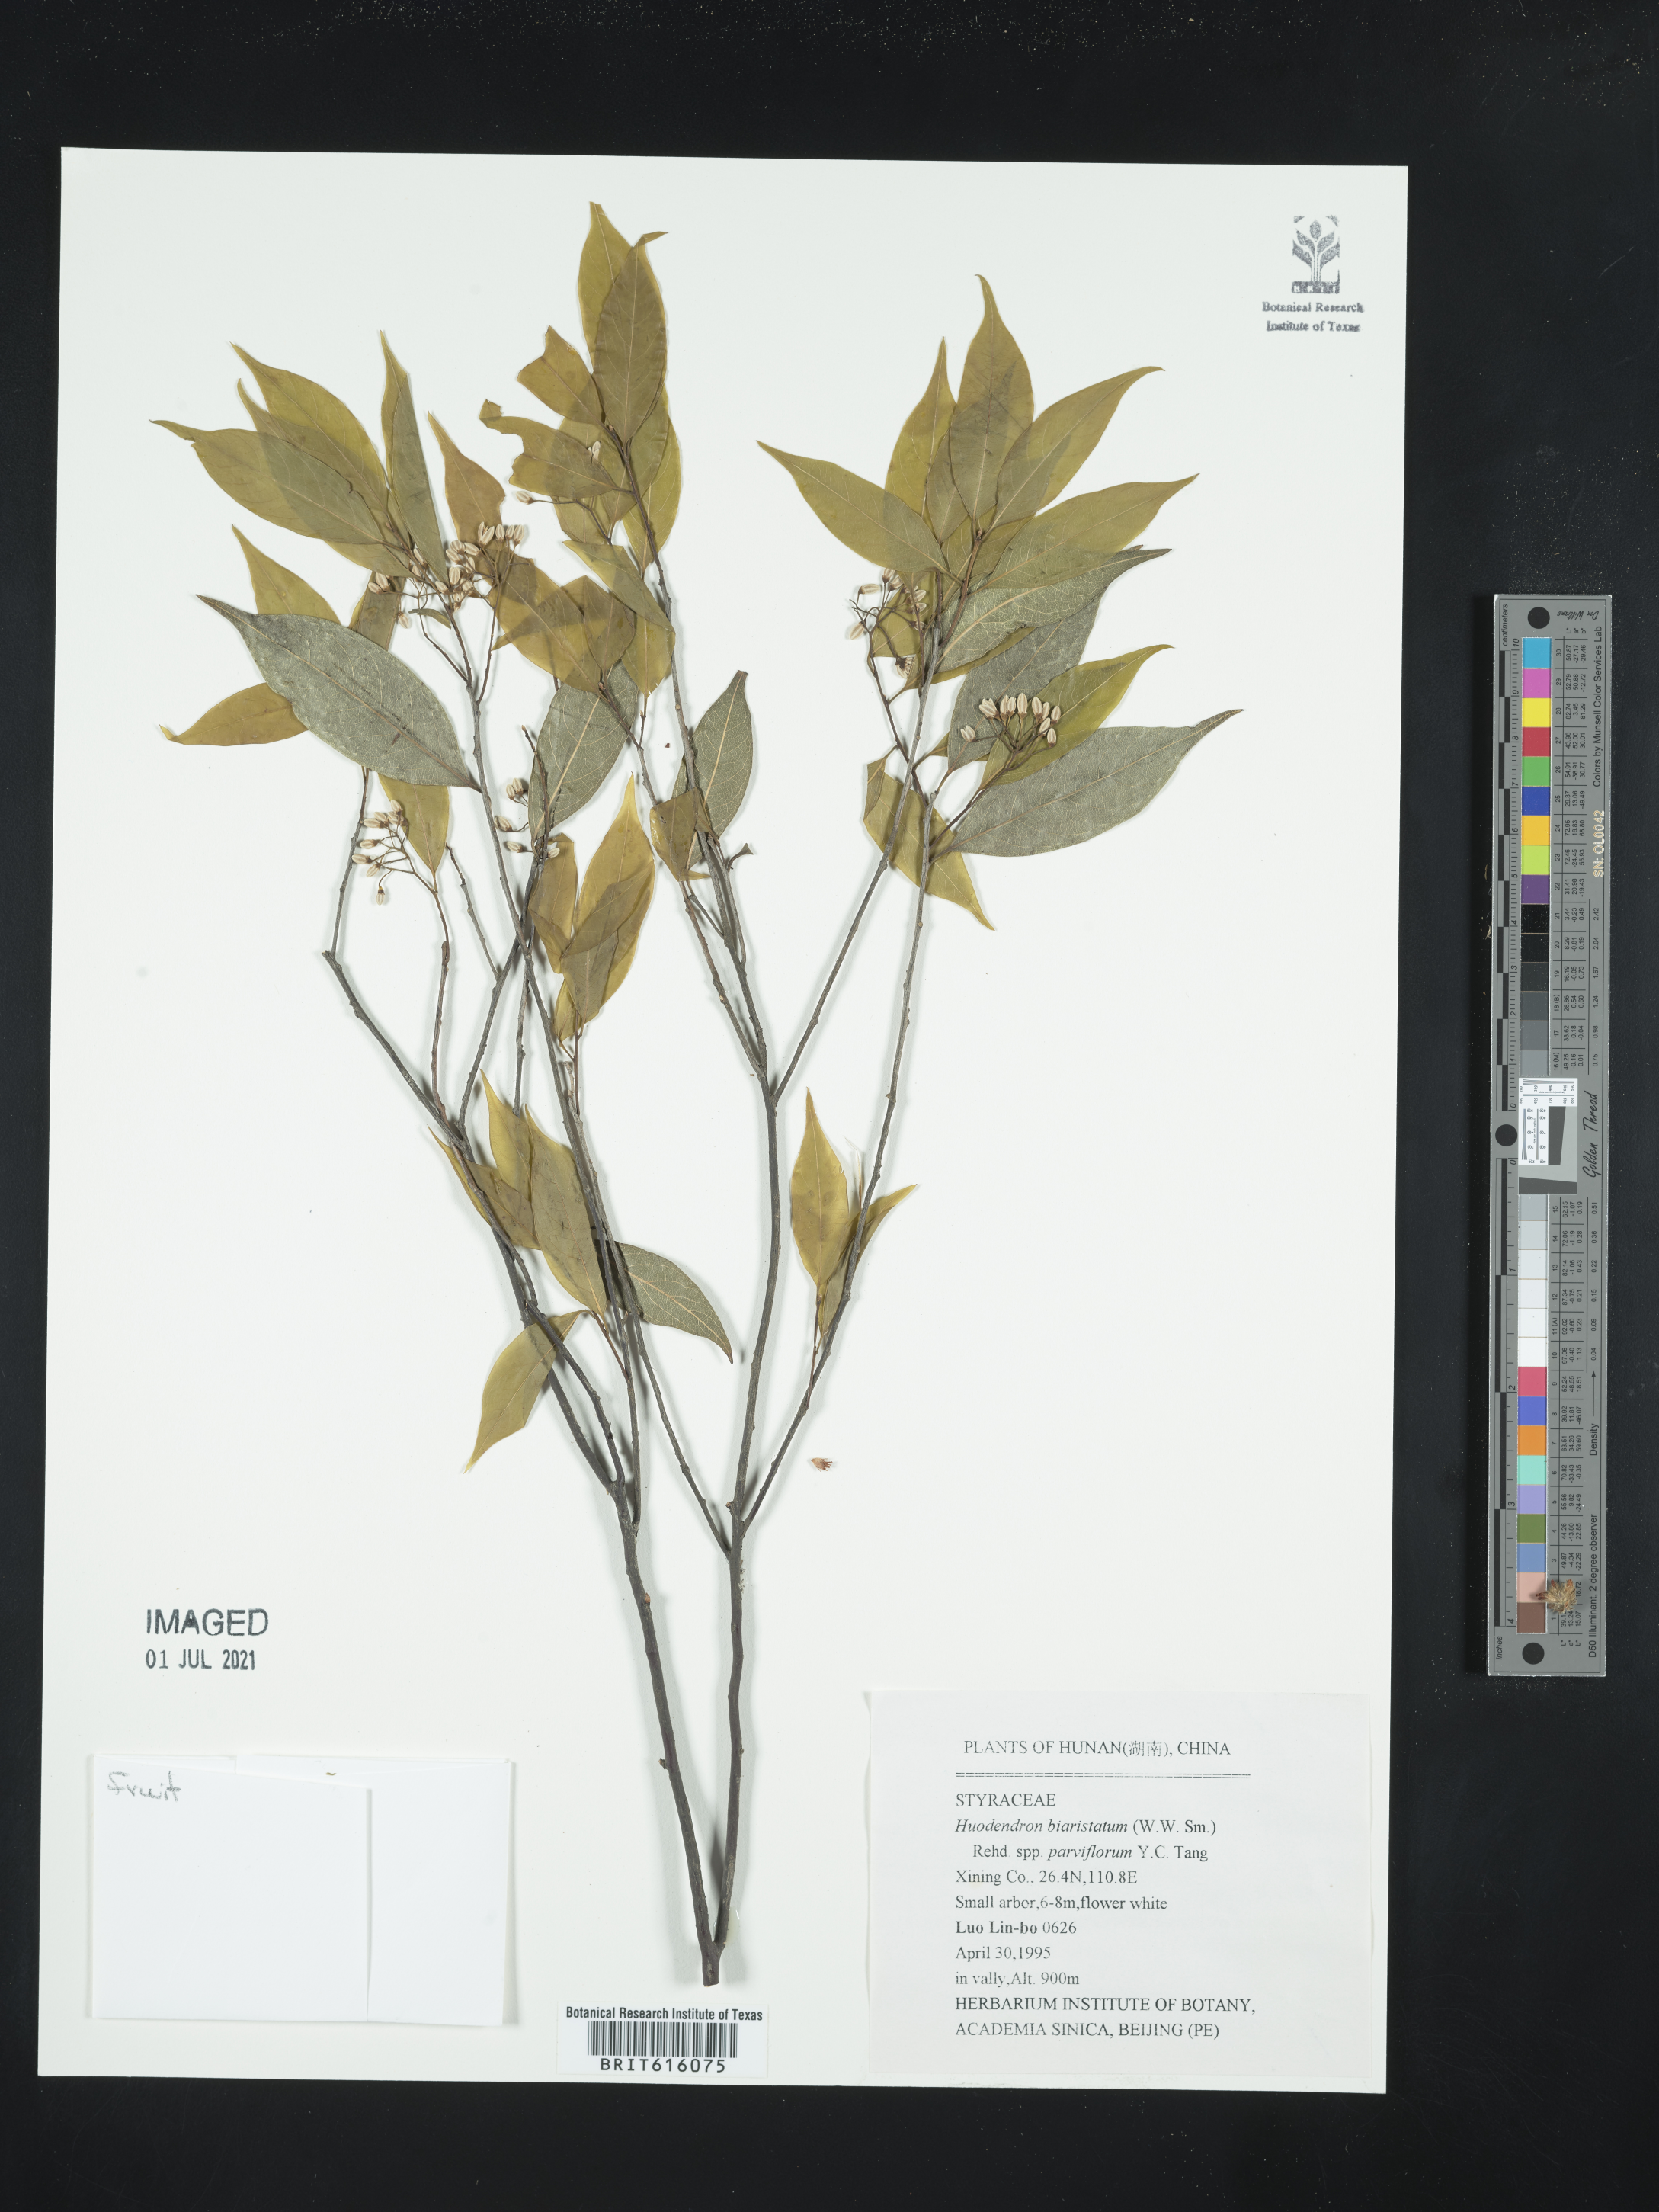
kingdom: Plantae
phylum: Tracheophyta
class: Magnoliopsida
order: Ericales
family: Styracaceae
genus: Huodendron
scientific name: Huodendron biaristatum
